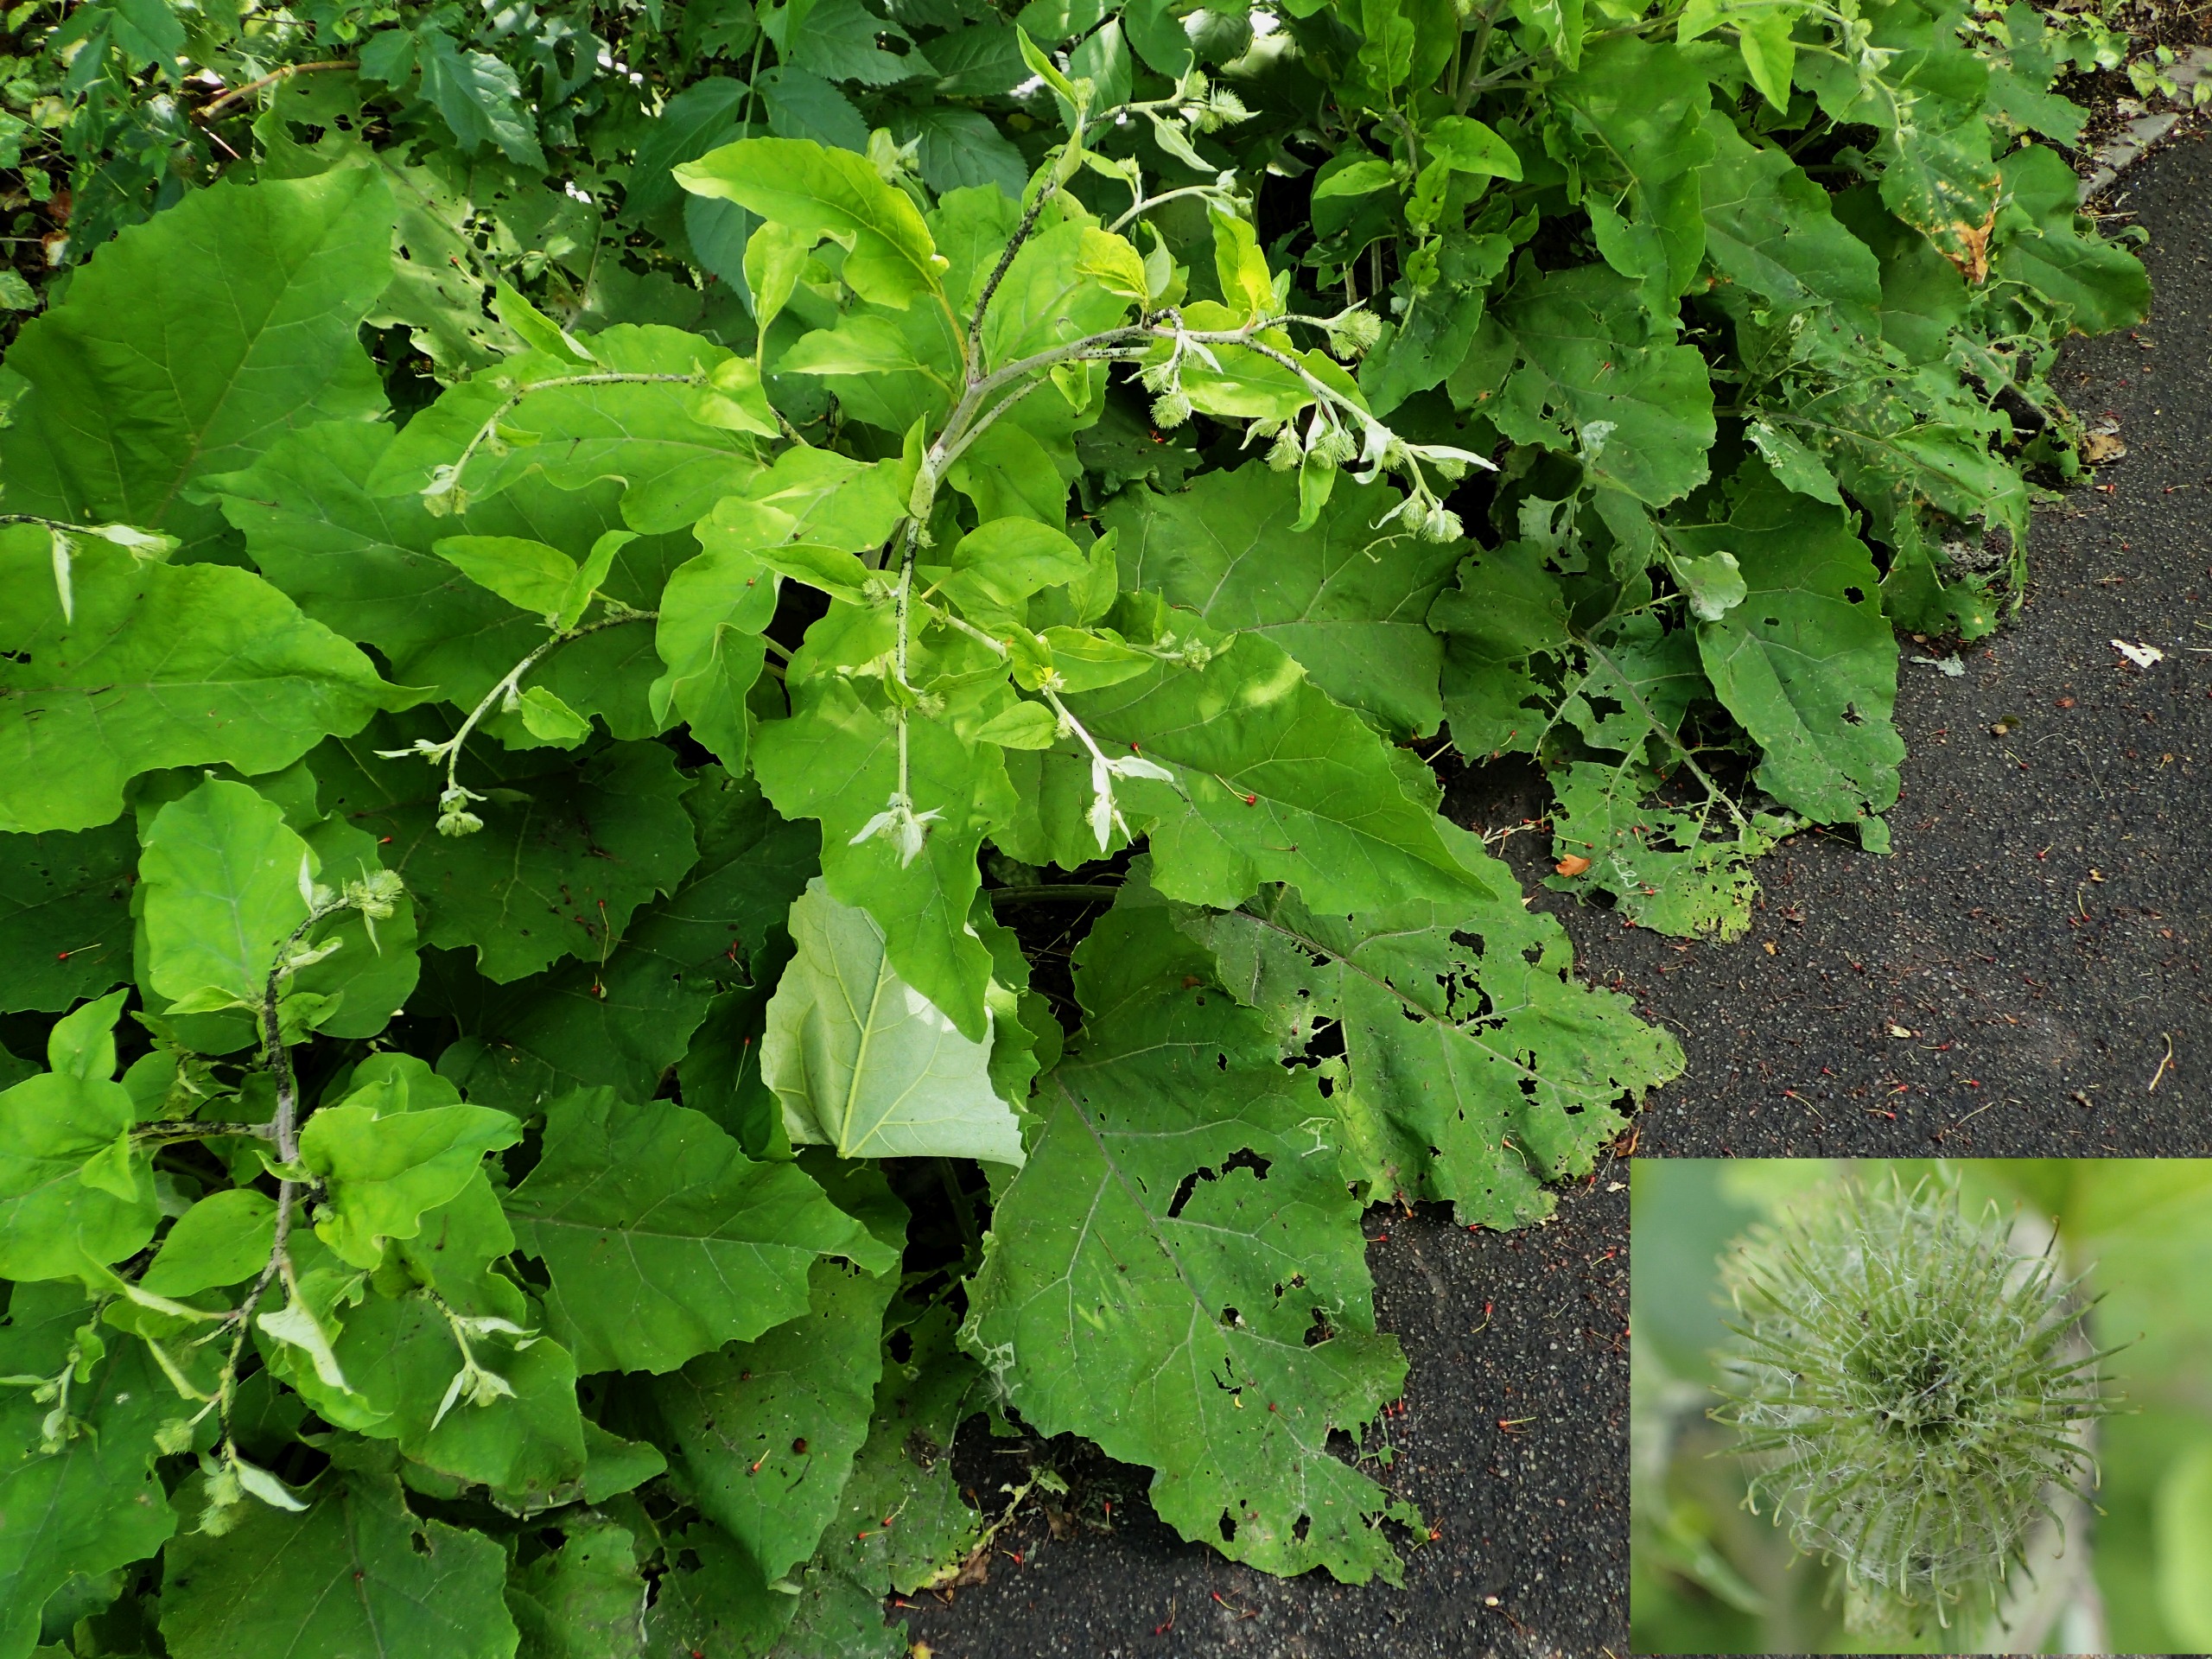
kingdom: Plantae
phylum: Tracheophyta
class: Magnoliopsida
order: Asterales
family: Asteraceae
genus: Arctium
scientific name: Arctium nemorosum
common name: Skov-burre
